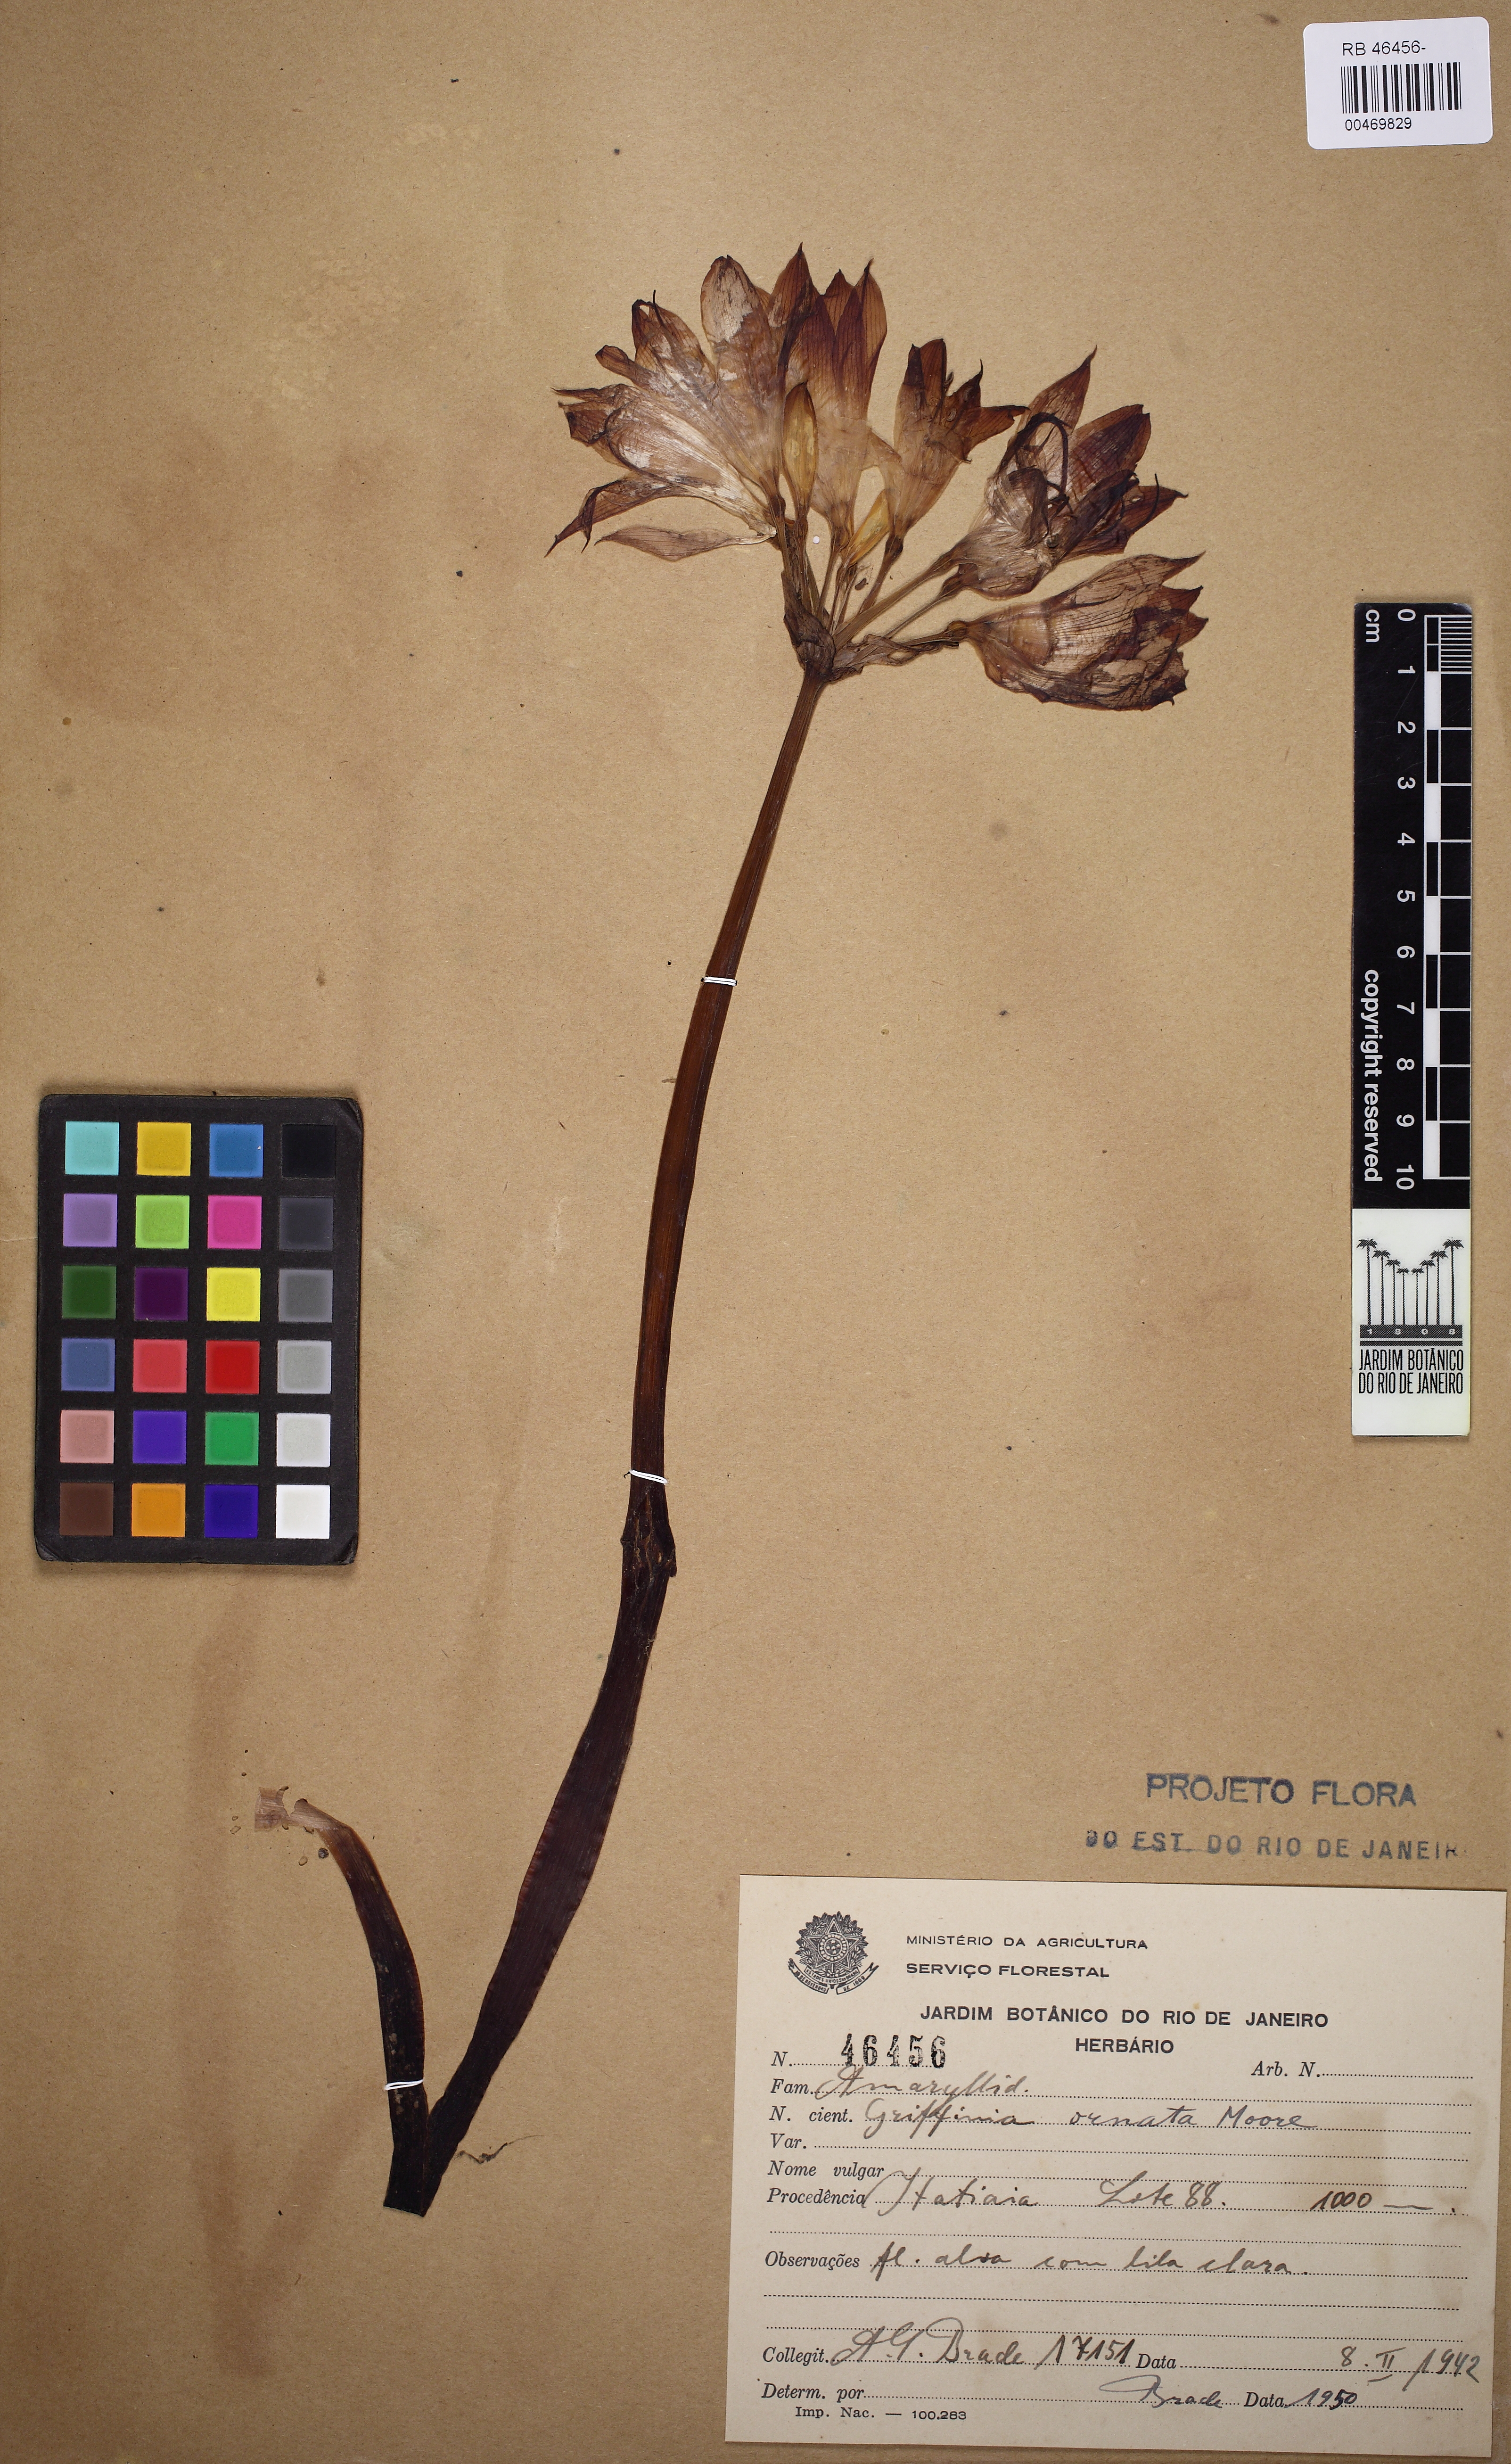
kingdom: Plantae
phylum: Tracheophyta
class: Liliopsida
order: Asparagales
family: Amaryllidaceae
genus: Griffinia
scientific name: Griffinia intermedia
